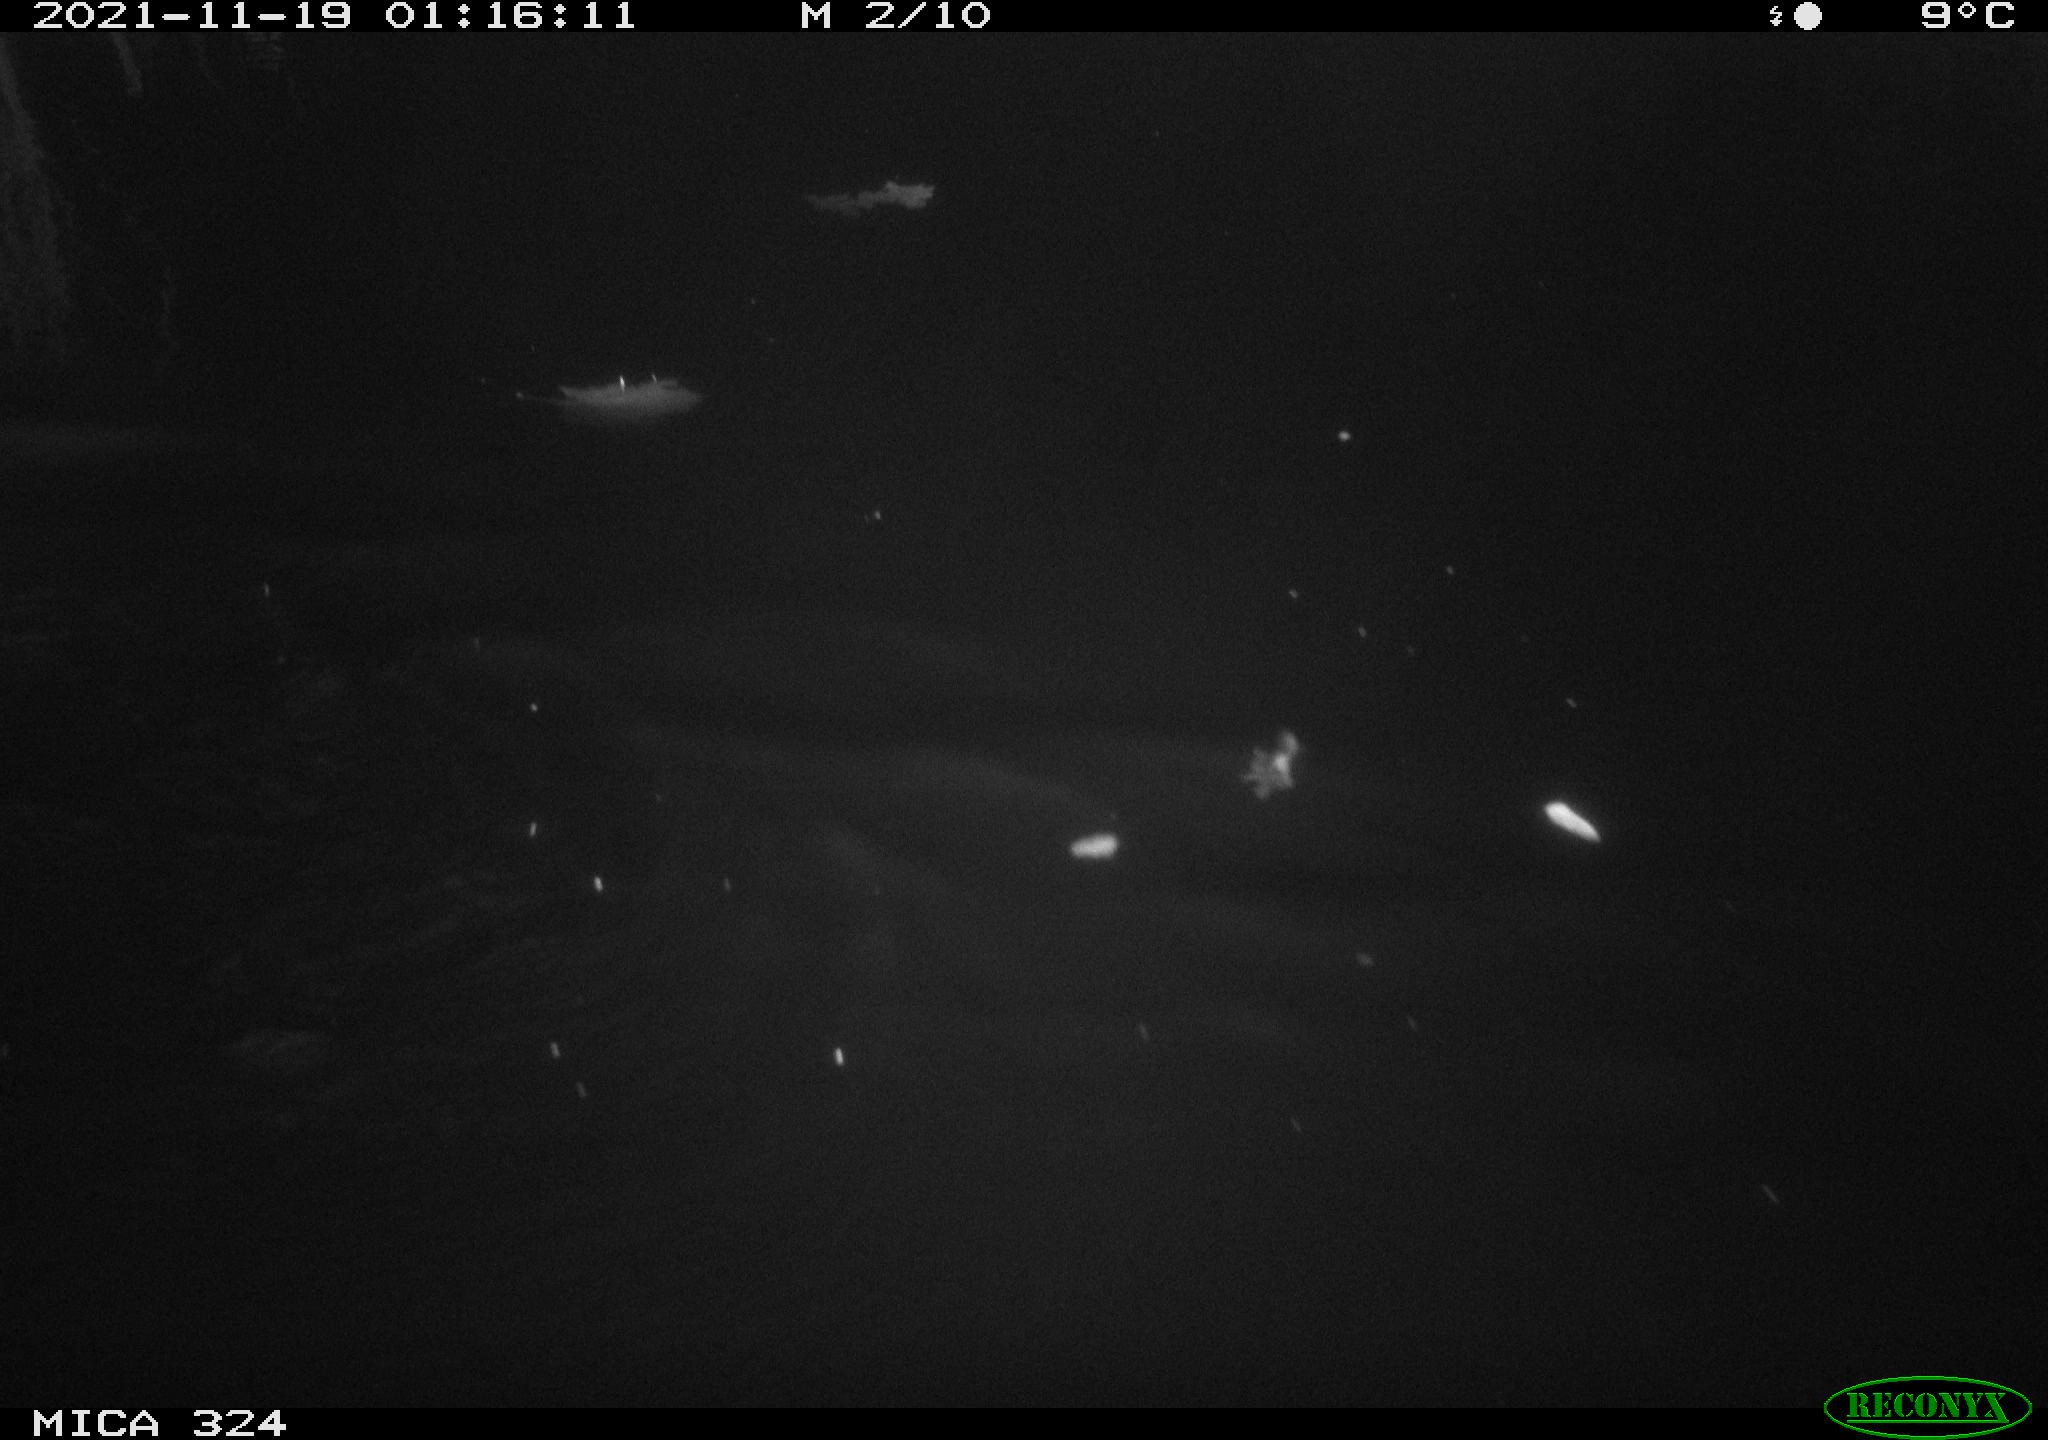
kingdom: Animalia
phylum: Chordata
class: Mammalia
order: Rodentia
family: Cricetidae
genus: Ondatra
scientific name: Ondatra zibethicus
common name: Muskrat
